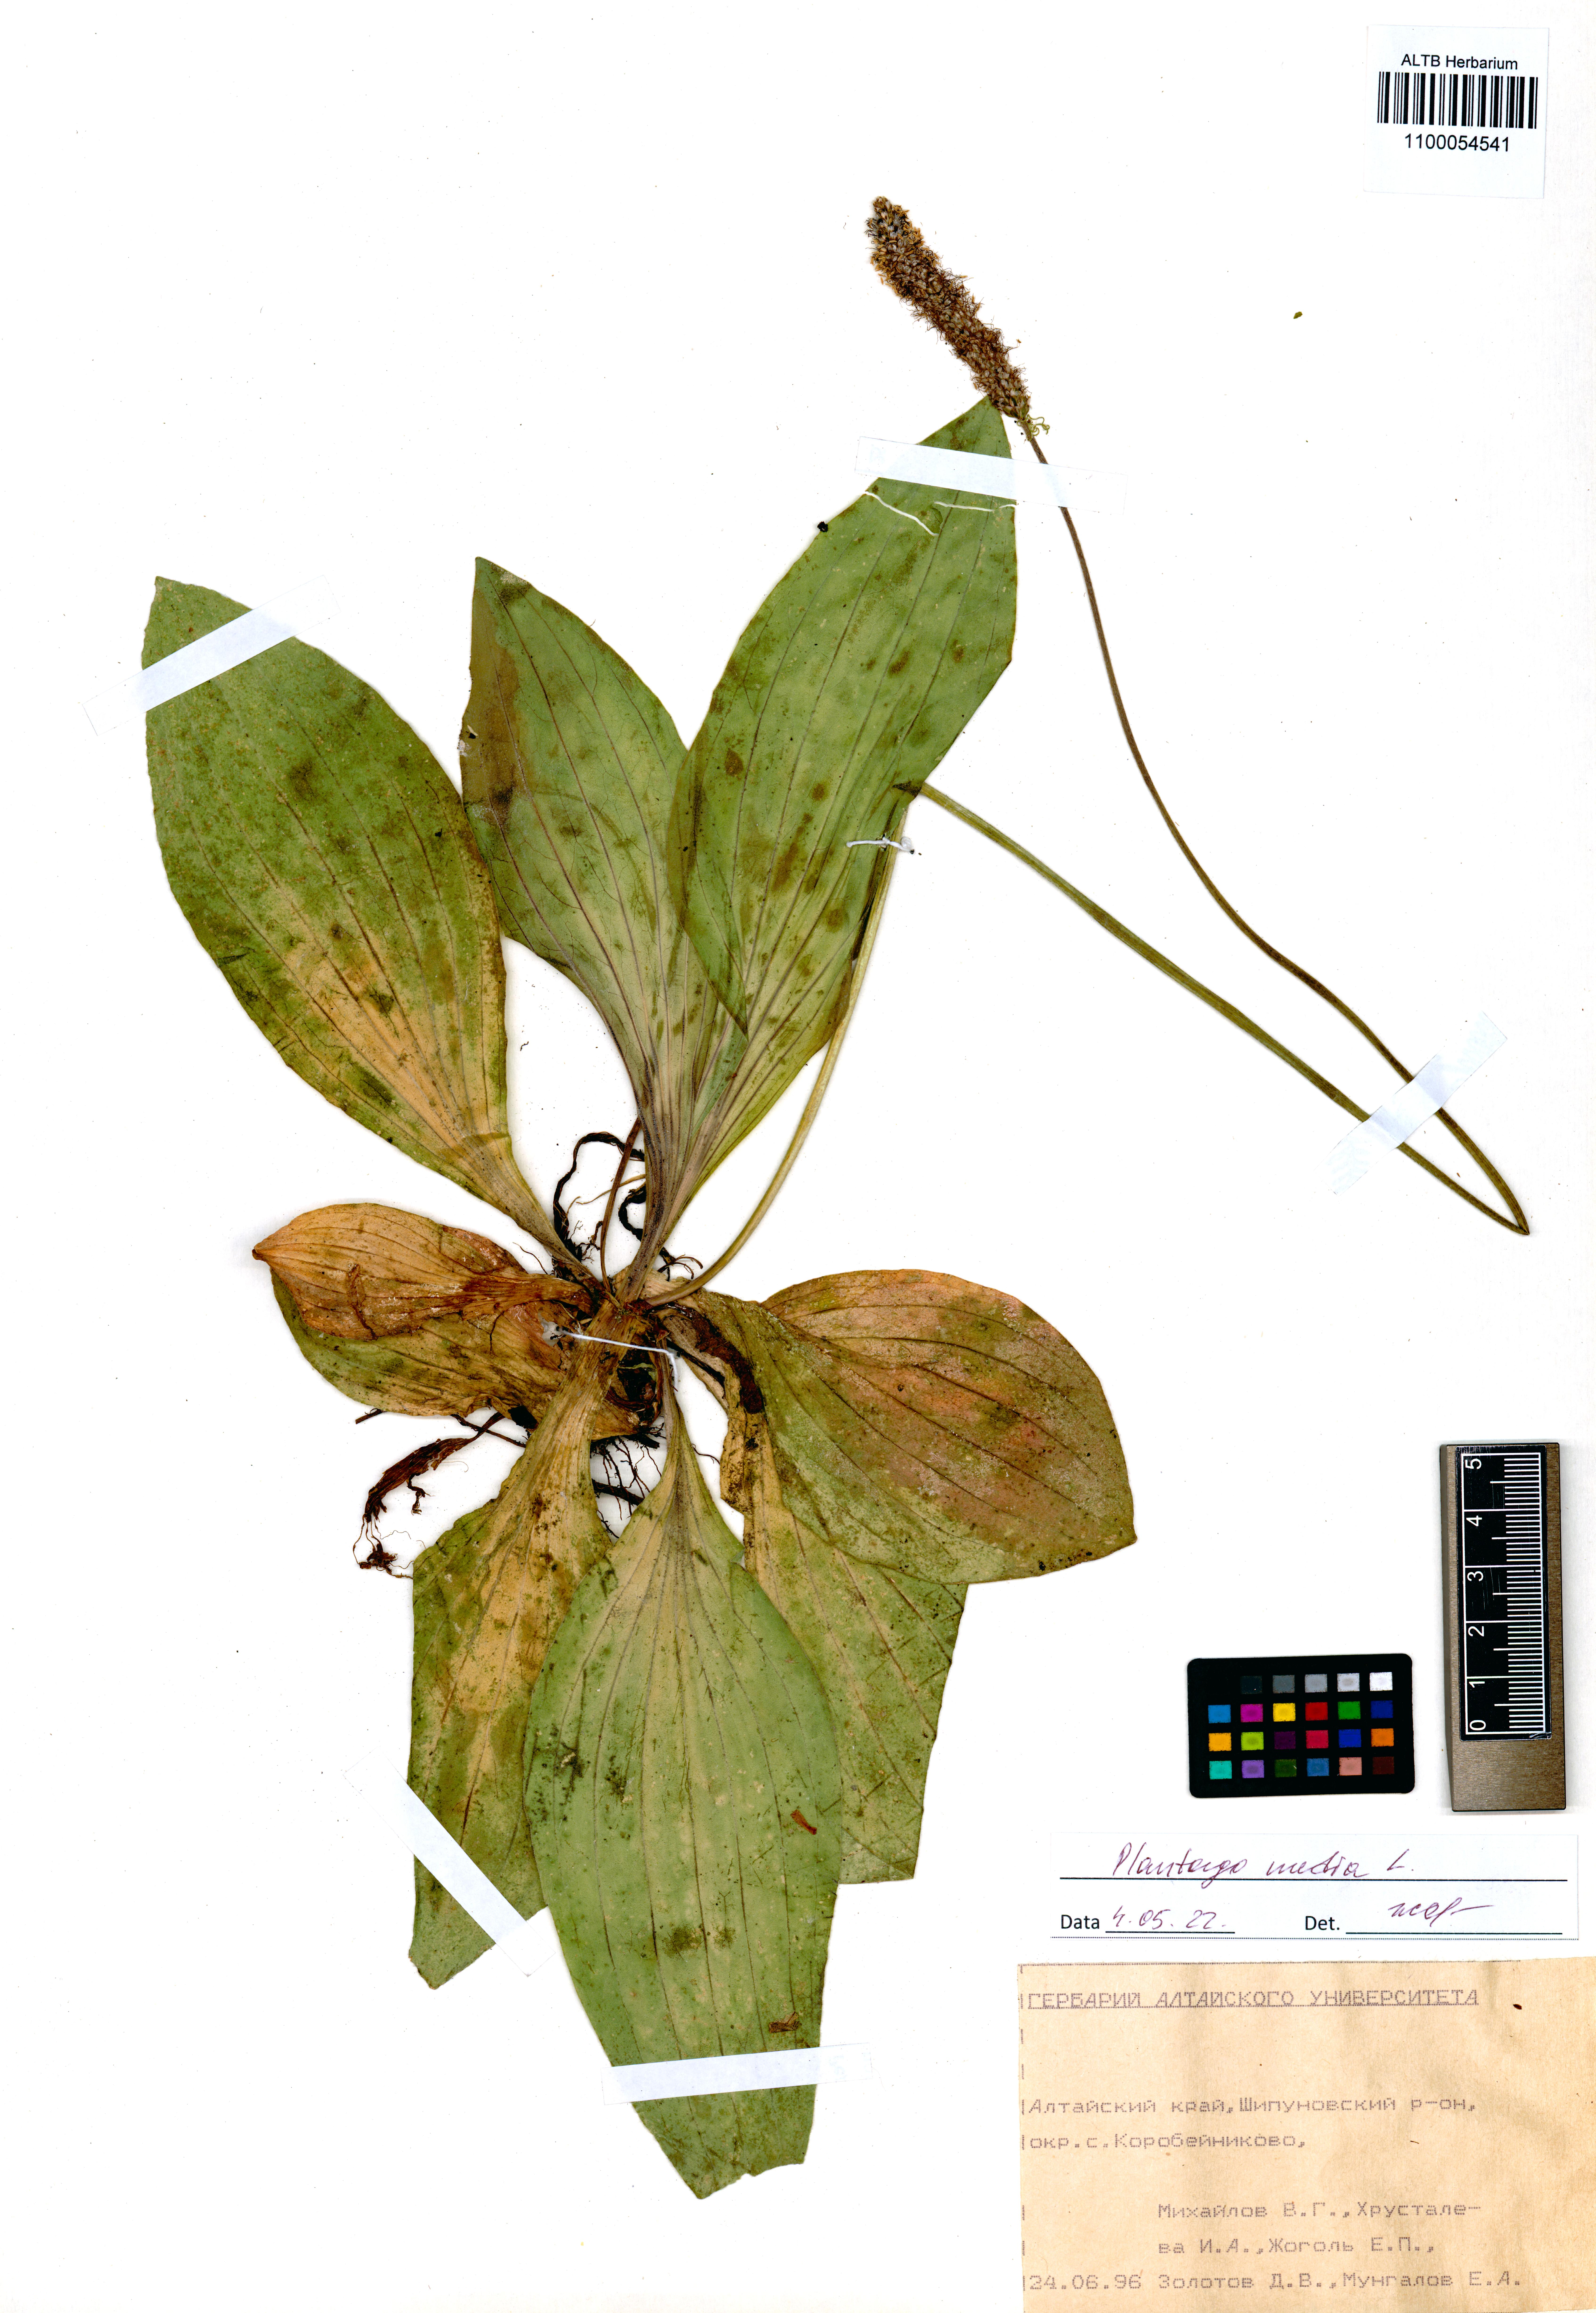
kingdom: Plantae
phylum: Tracheophyta
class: Magnoliopsida
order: Lamiales
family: Plantaginaceae
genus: Plantago
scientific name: Plantago media
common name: Hoary plantain
